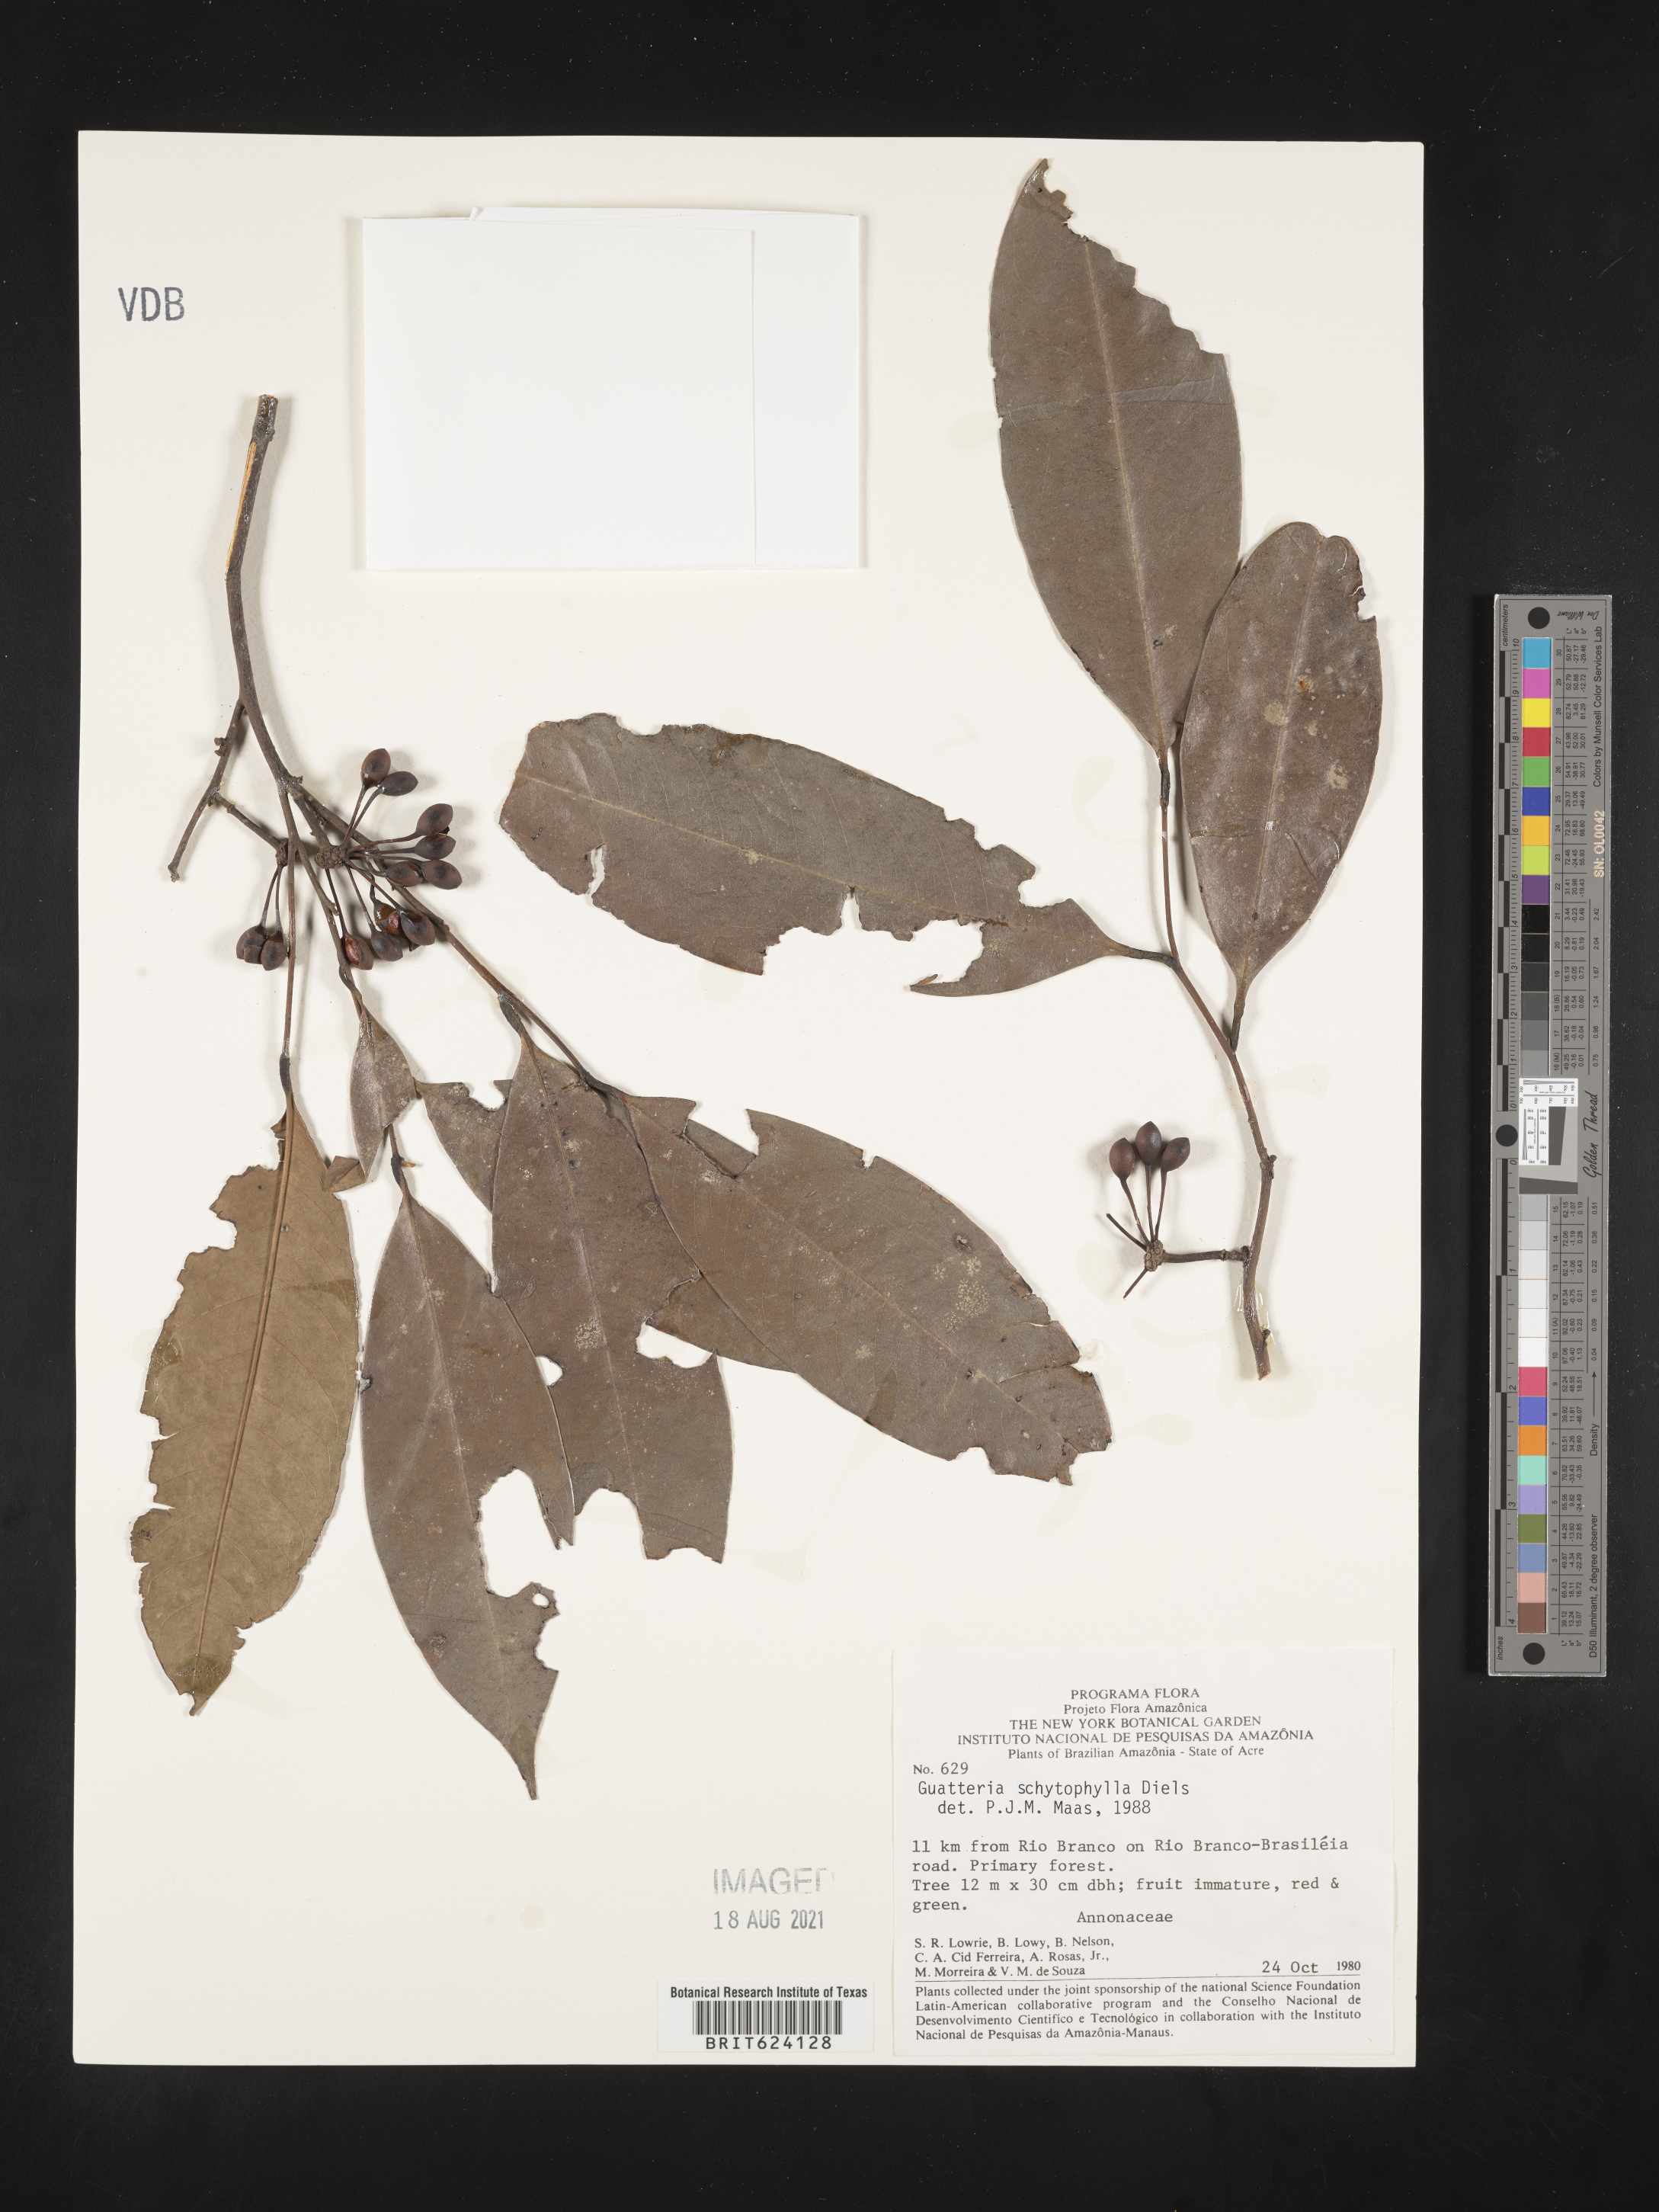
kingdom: Plantae
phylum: Tracheophyta
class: Magnoliopsida
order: Magnoliales
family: Annonaceae
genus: Guatteria
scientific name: Guatteria
